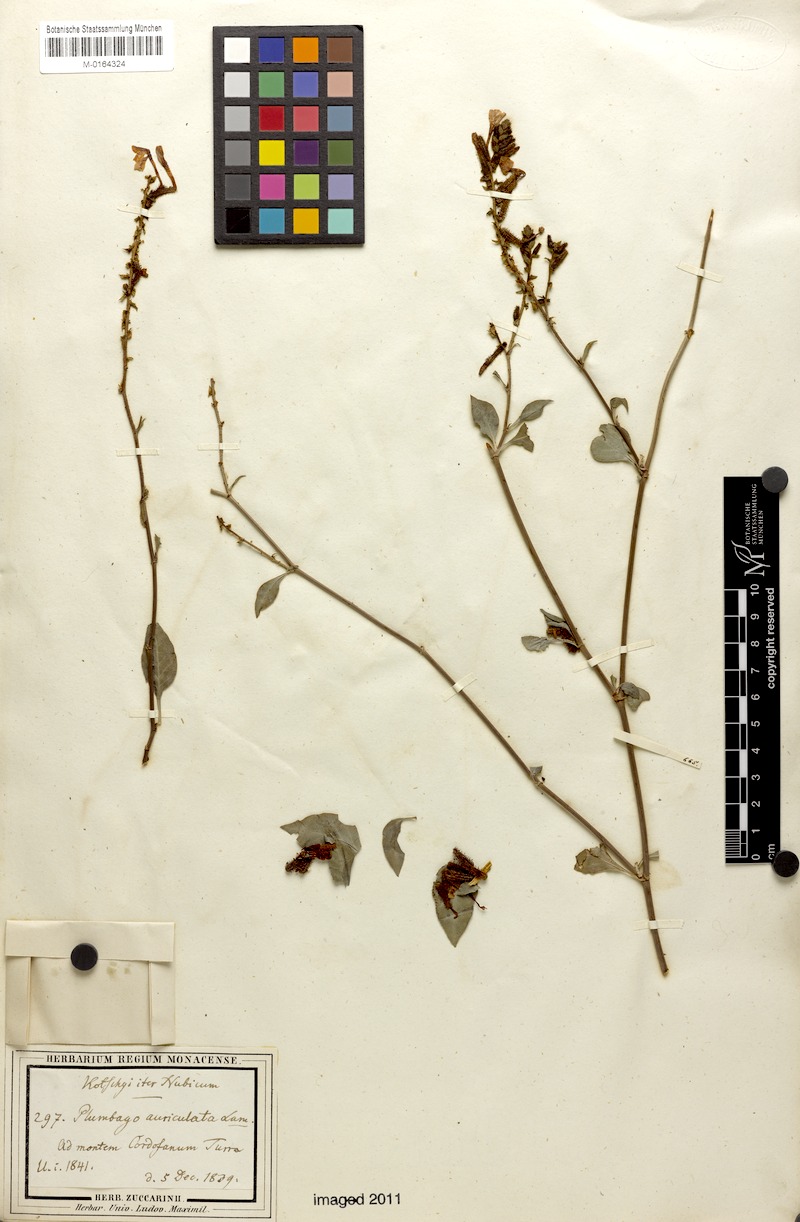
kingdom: Plantae
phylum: Tracheophyta
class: Magnoliopsida
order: Caryophyllales
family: Plumbaginaceae
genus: Plumbago
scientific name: Plumbago zeylanica
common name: Doctorbush
